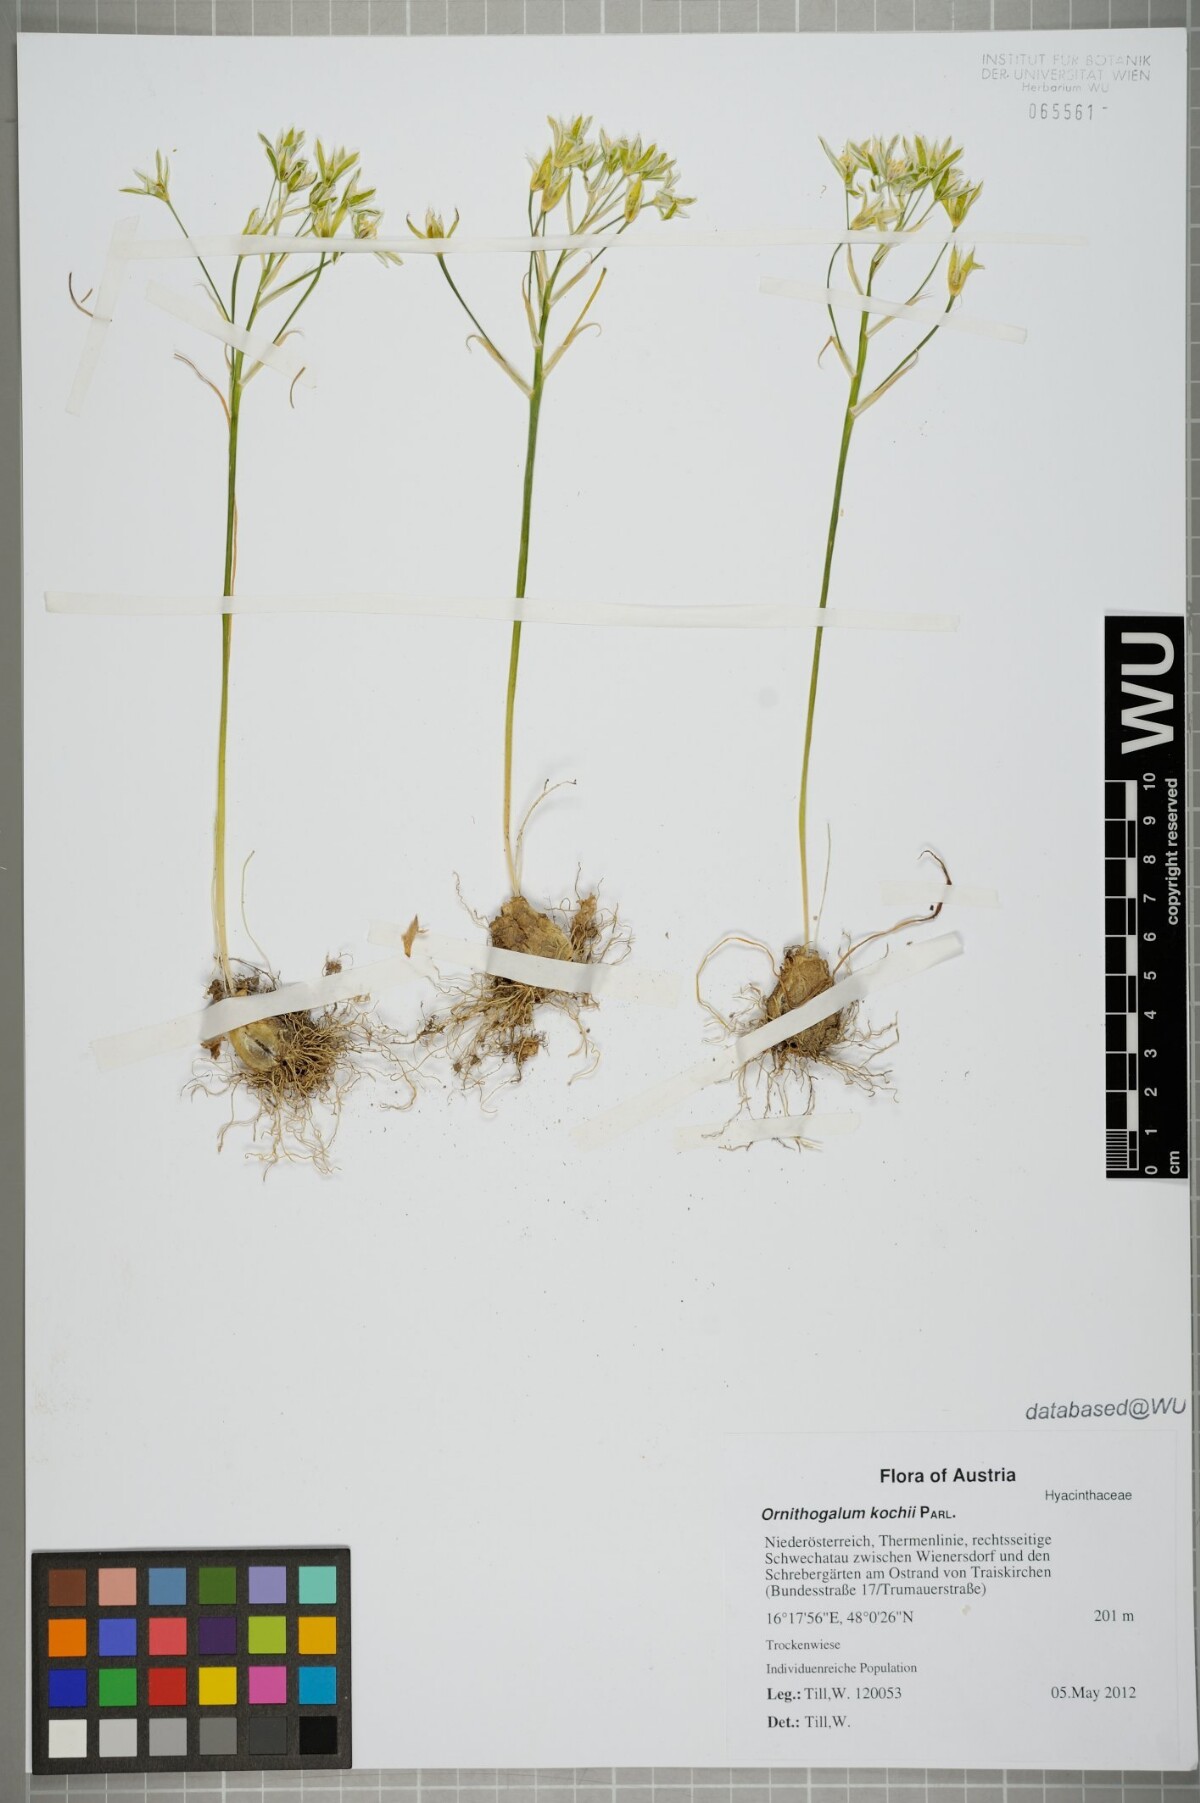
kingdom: Plantae
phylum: Tracheophyta
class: Liliopsida
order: Asparagales
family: Asparagaceae
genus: Ornithogalum
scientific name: Ornithogalum orthophyllum
